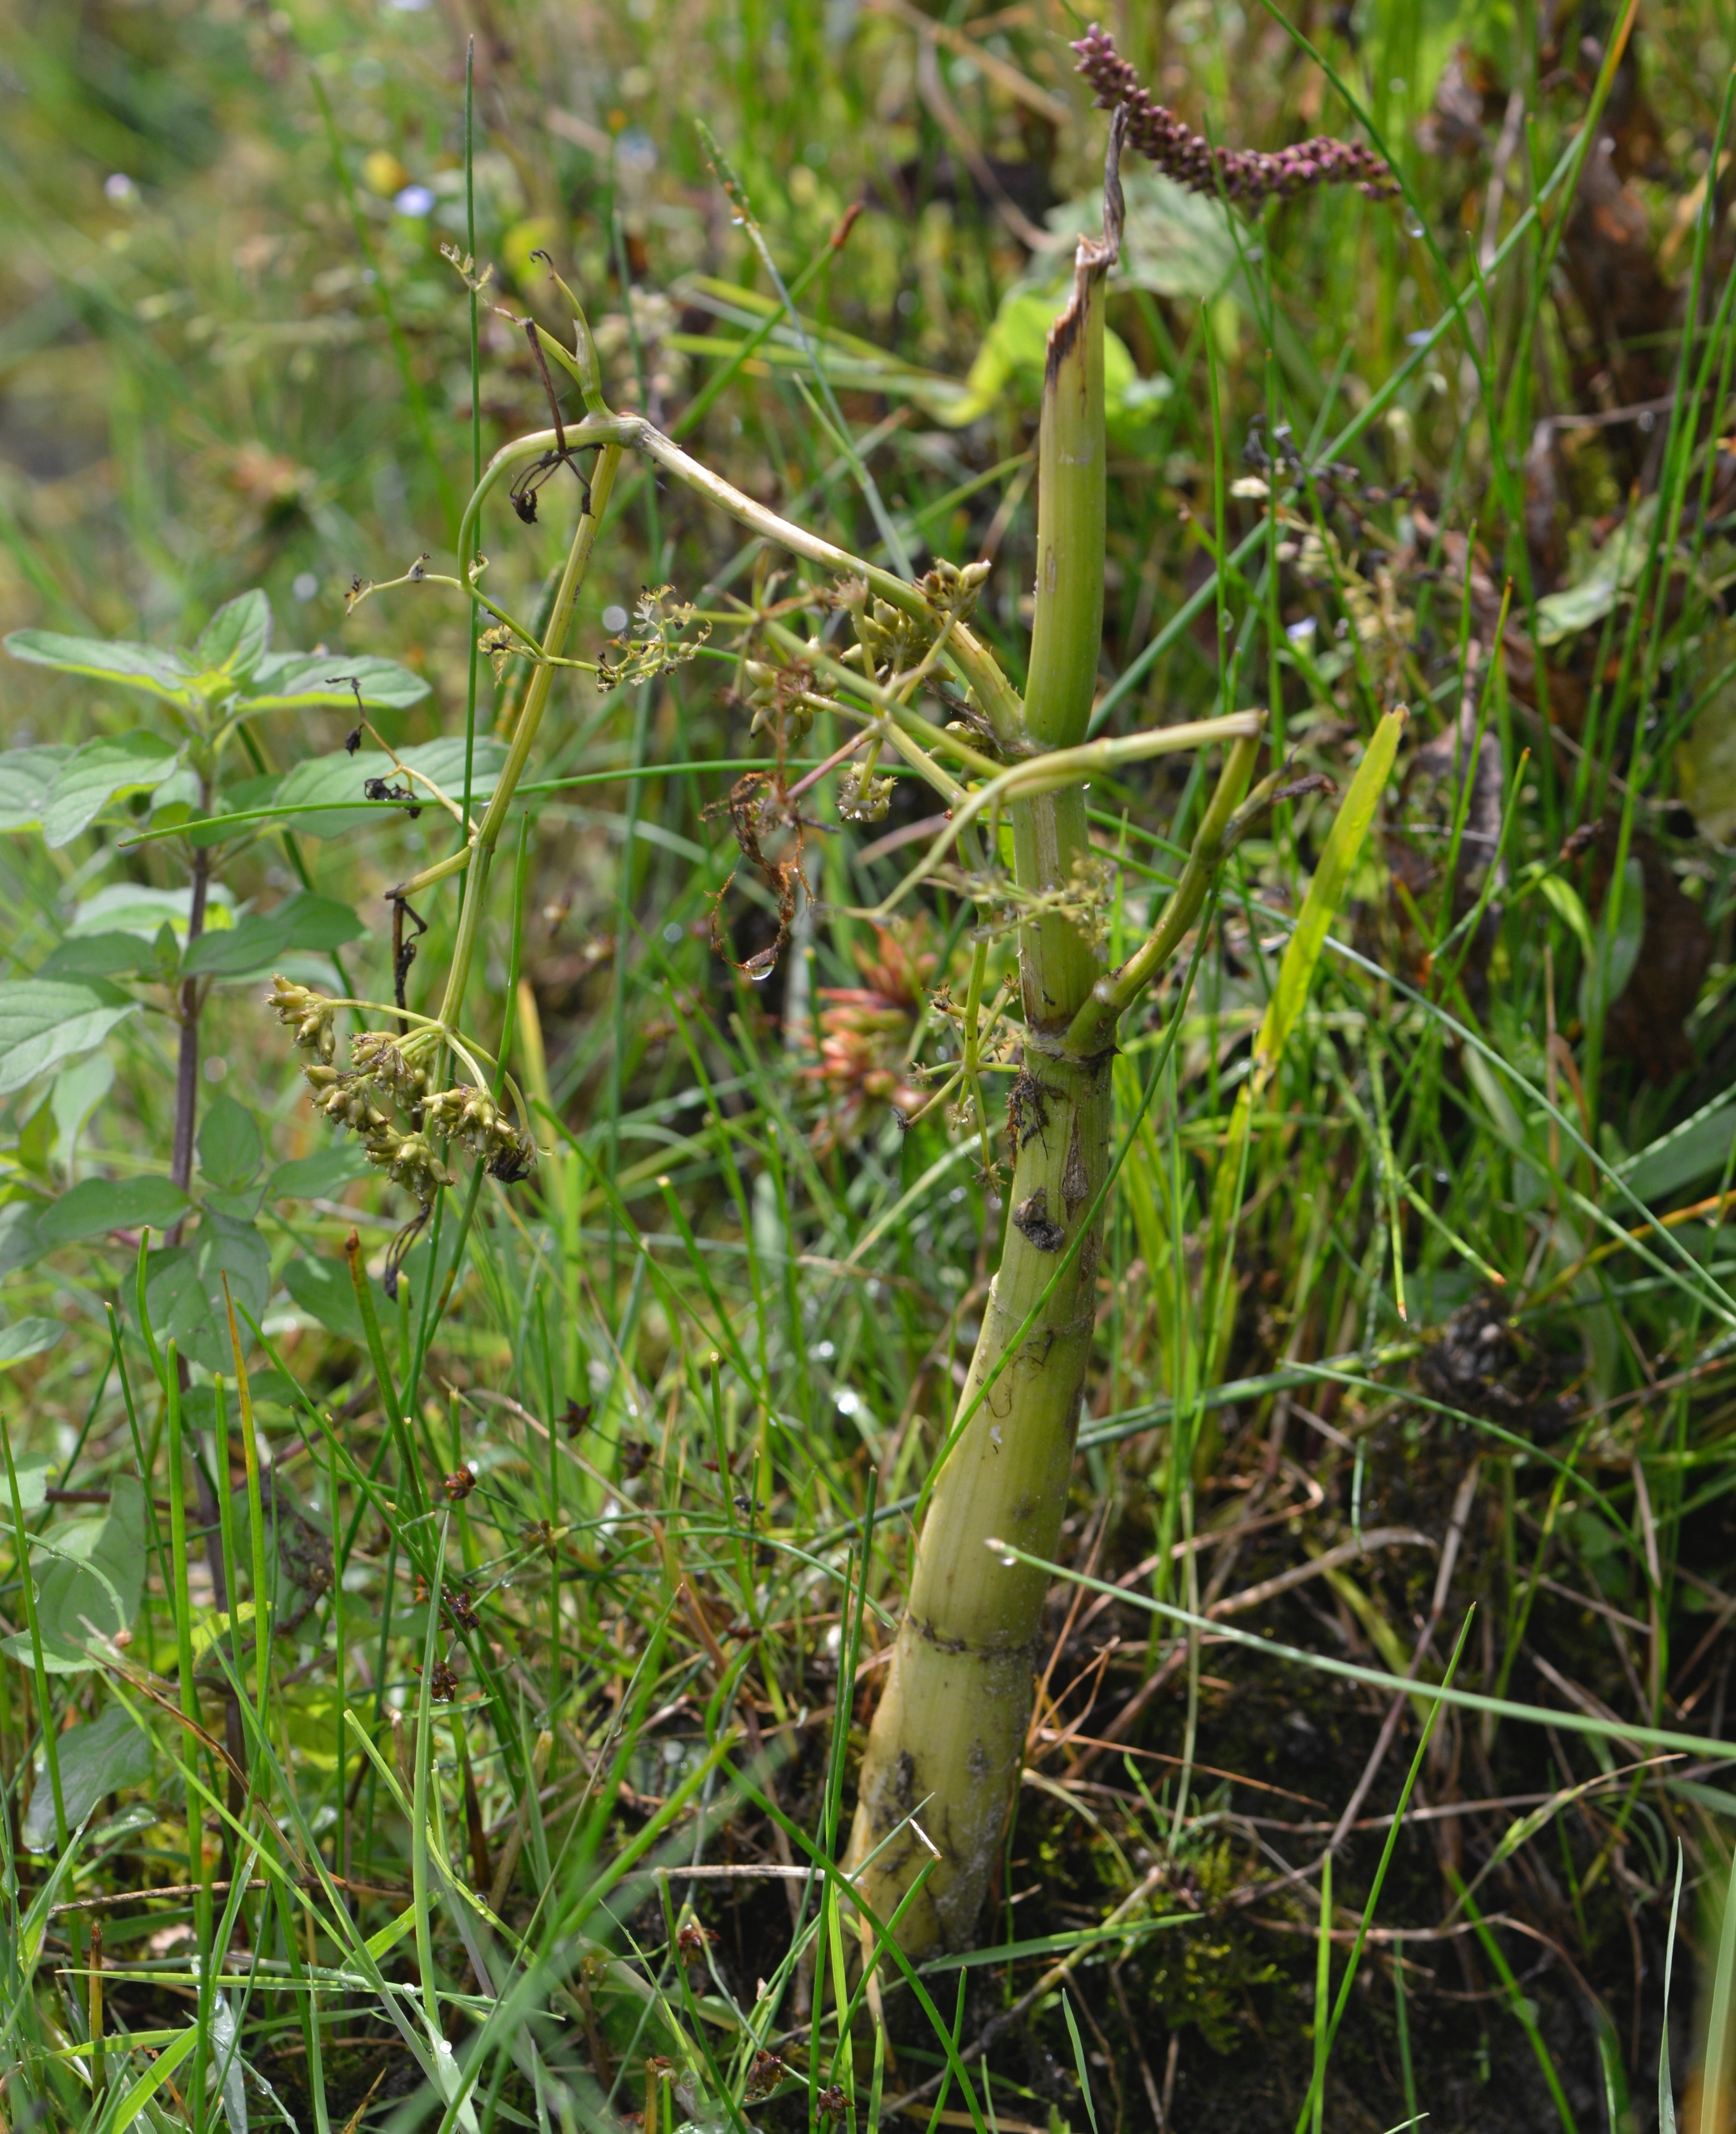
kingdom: Plantae
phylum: Tracheophyta
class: Magnoliopsida
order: Apiales
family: Apiaceae
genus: Oenanthe
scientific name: Oenanthe aquatica
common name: Billebo-klaseskærm
